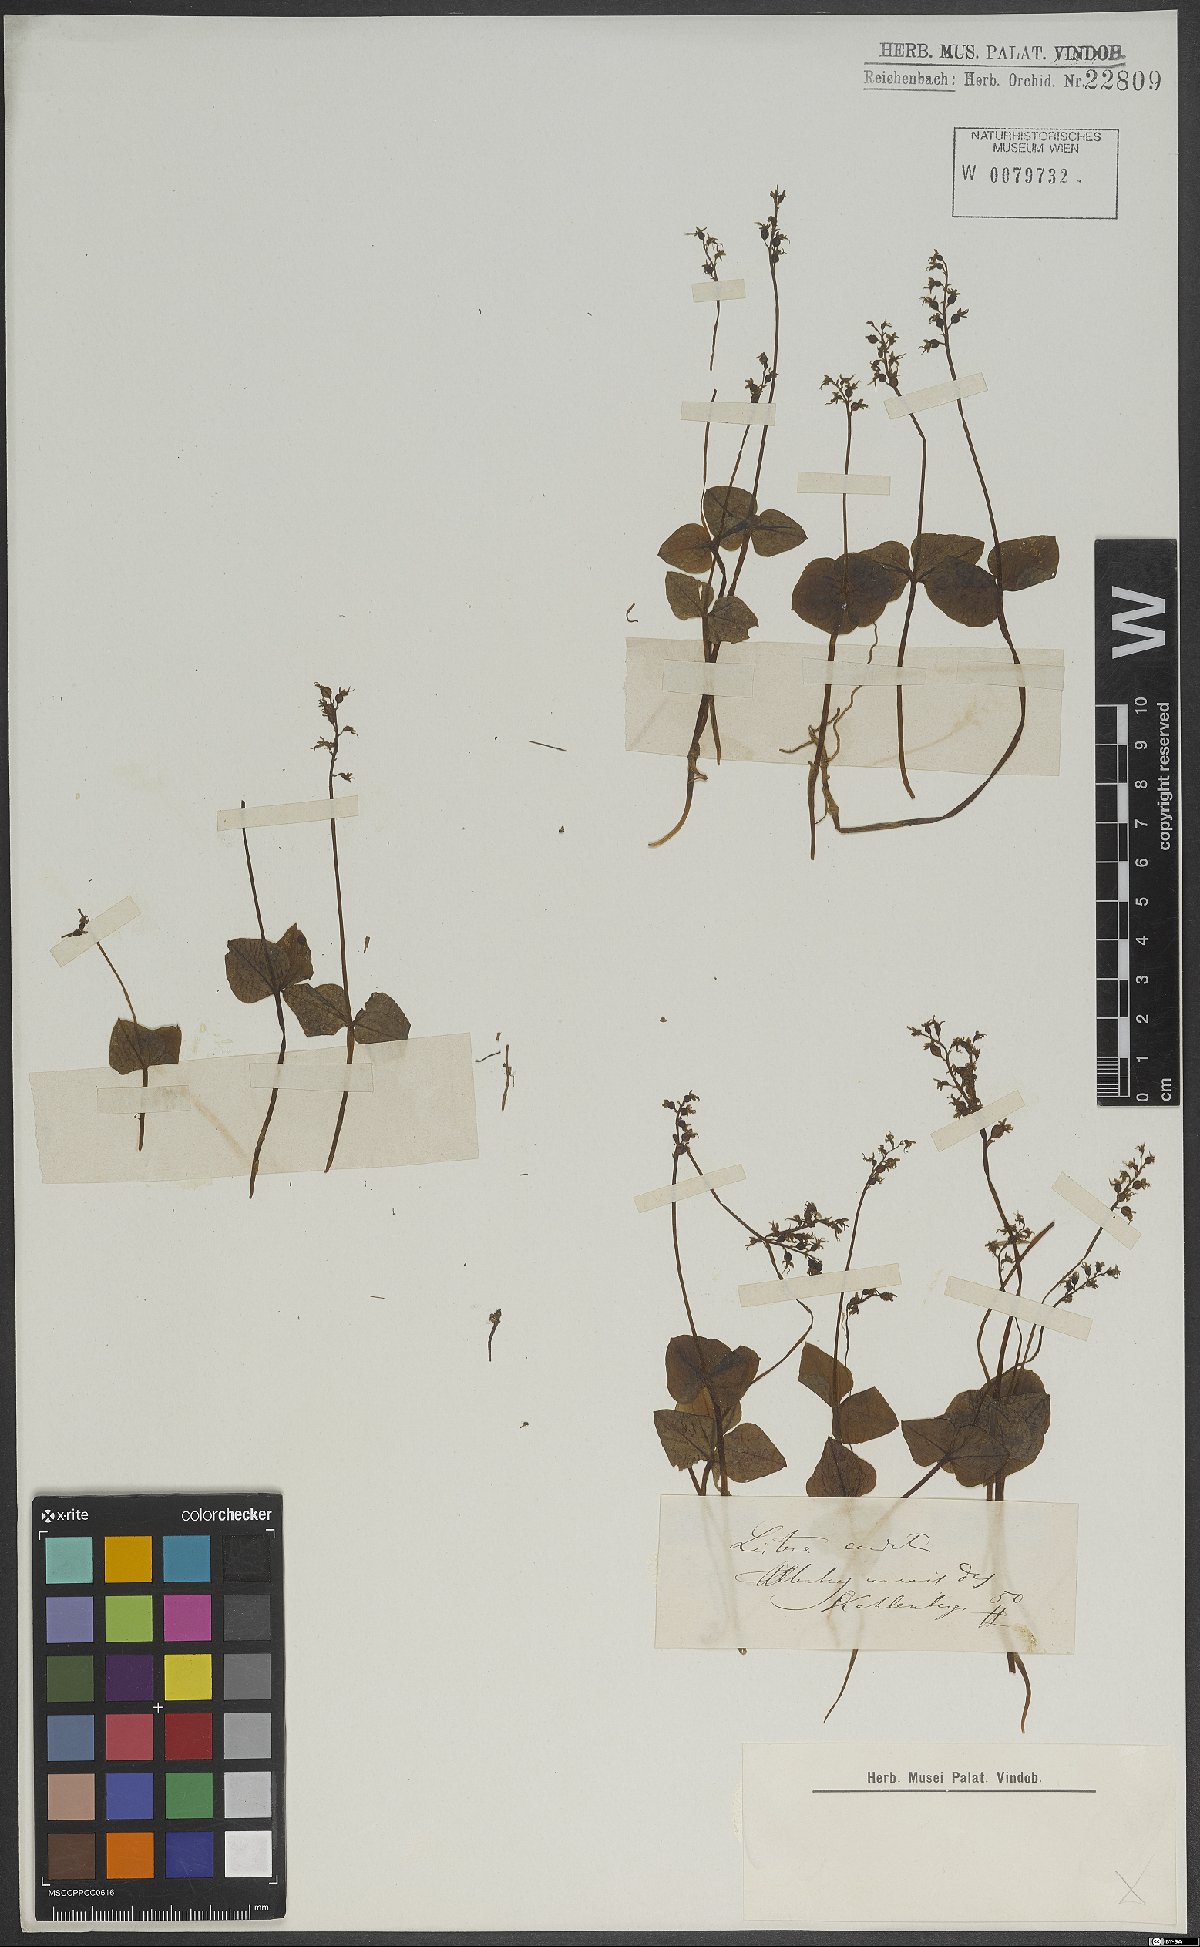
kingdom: Plantae
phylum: Tracheophyta
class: Liliopsida
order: Asparagales
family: Orchidaceae
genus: Neottia
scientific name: Neottia cordata
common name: Lesser twayblade
